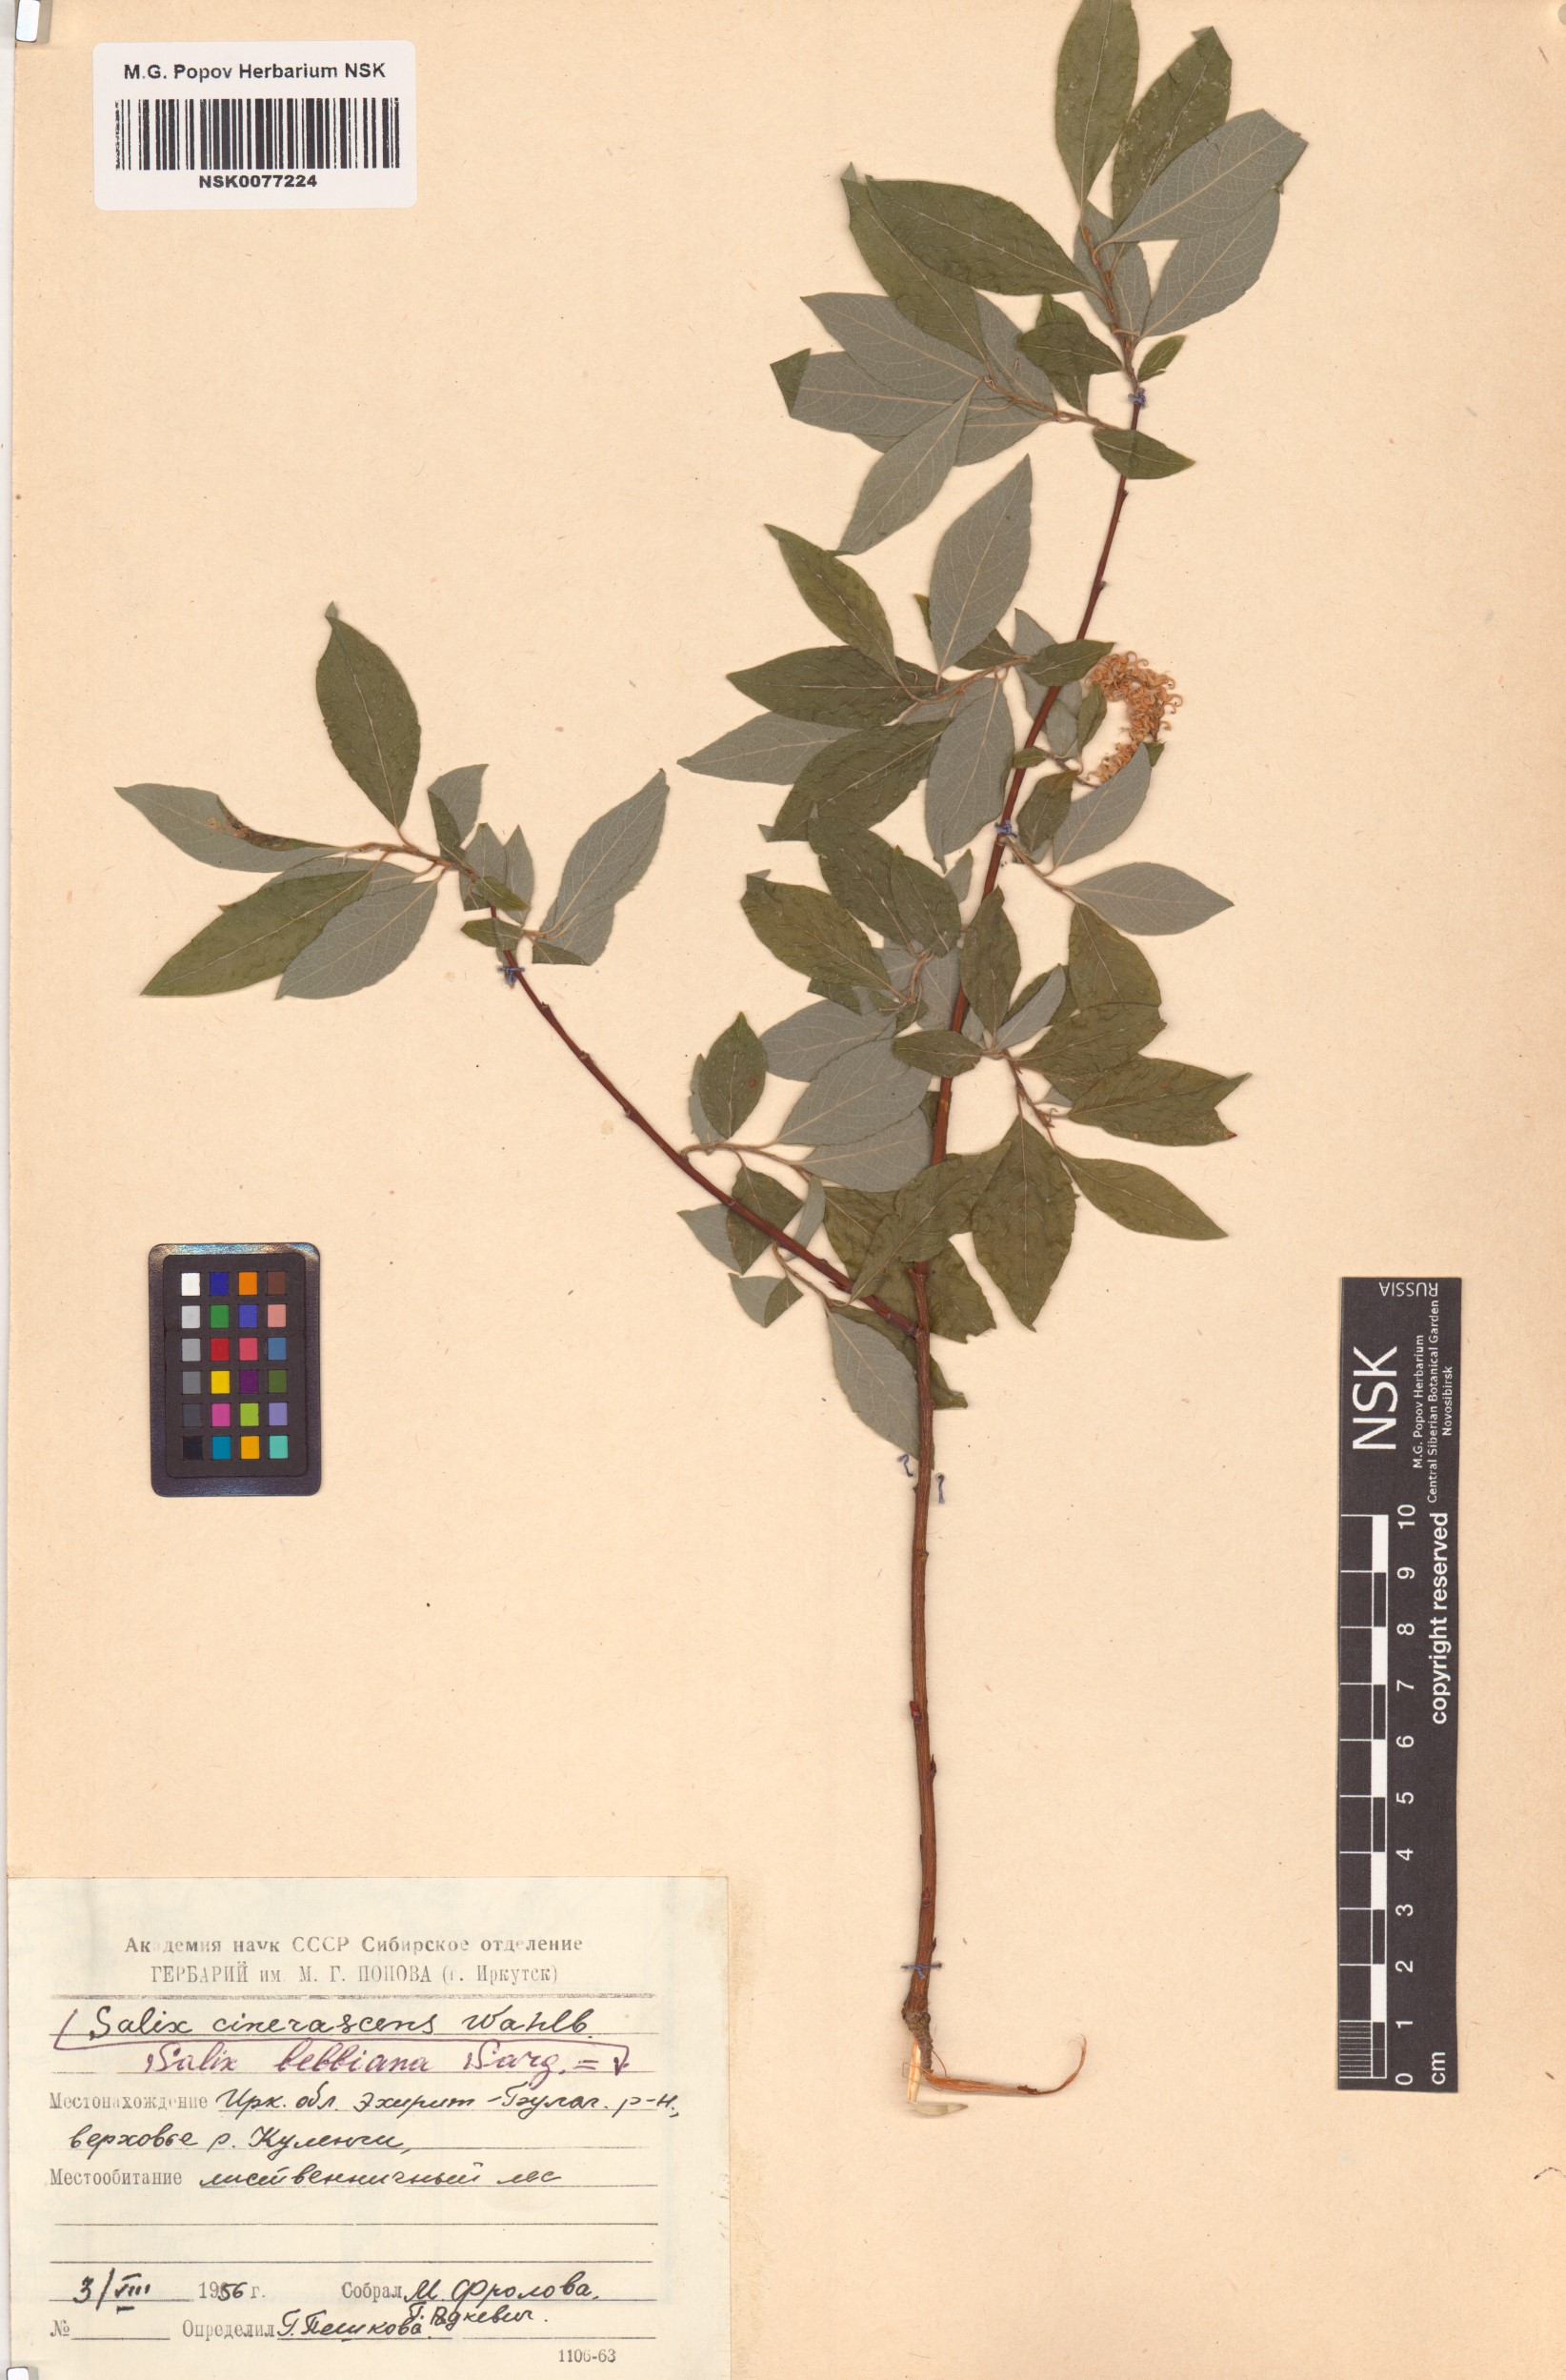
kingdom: Plantae
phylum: Tracheophyta
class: Magnoliopsida
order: Malpighiales
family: Salicaceae
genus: Salix
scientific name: Salix bebbiana
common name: Bebb's willow
